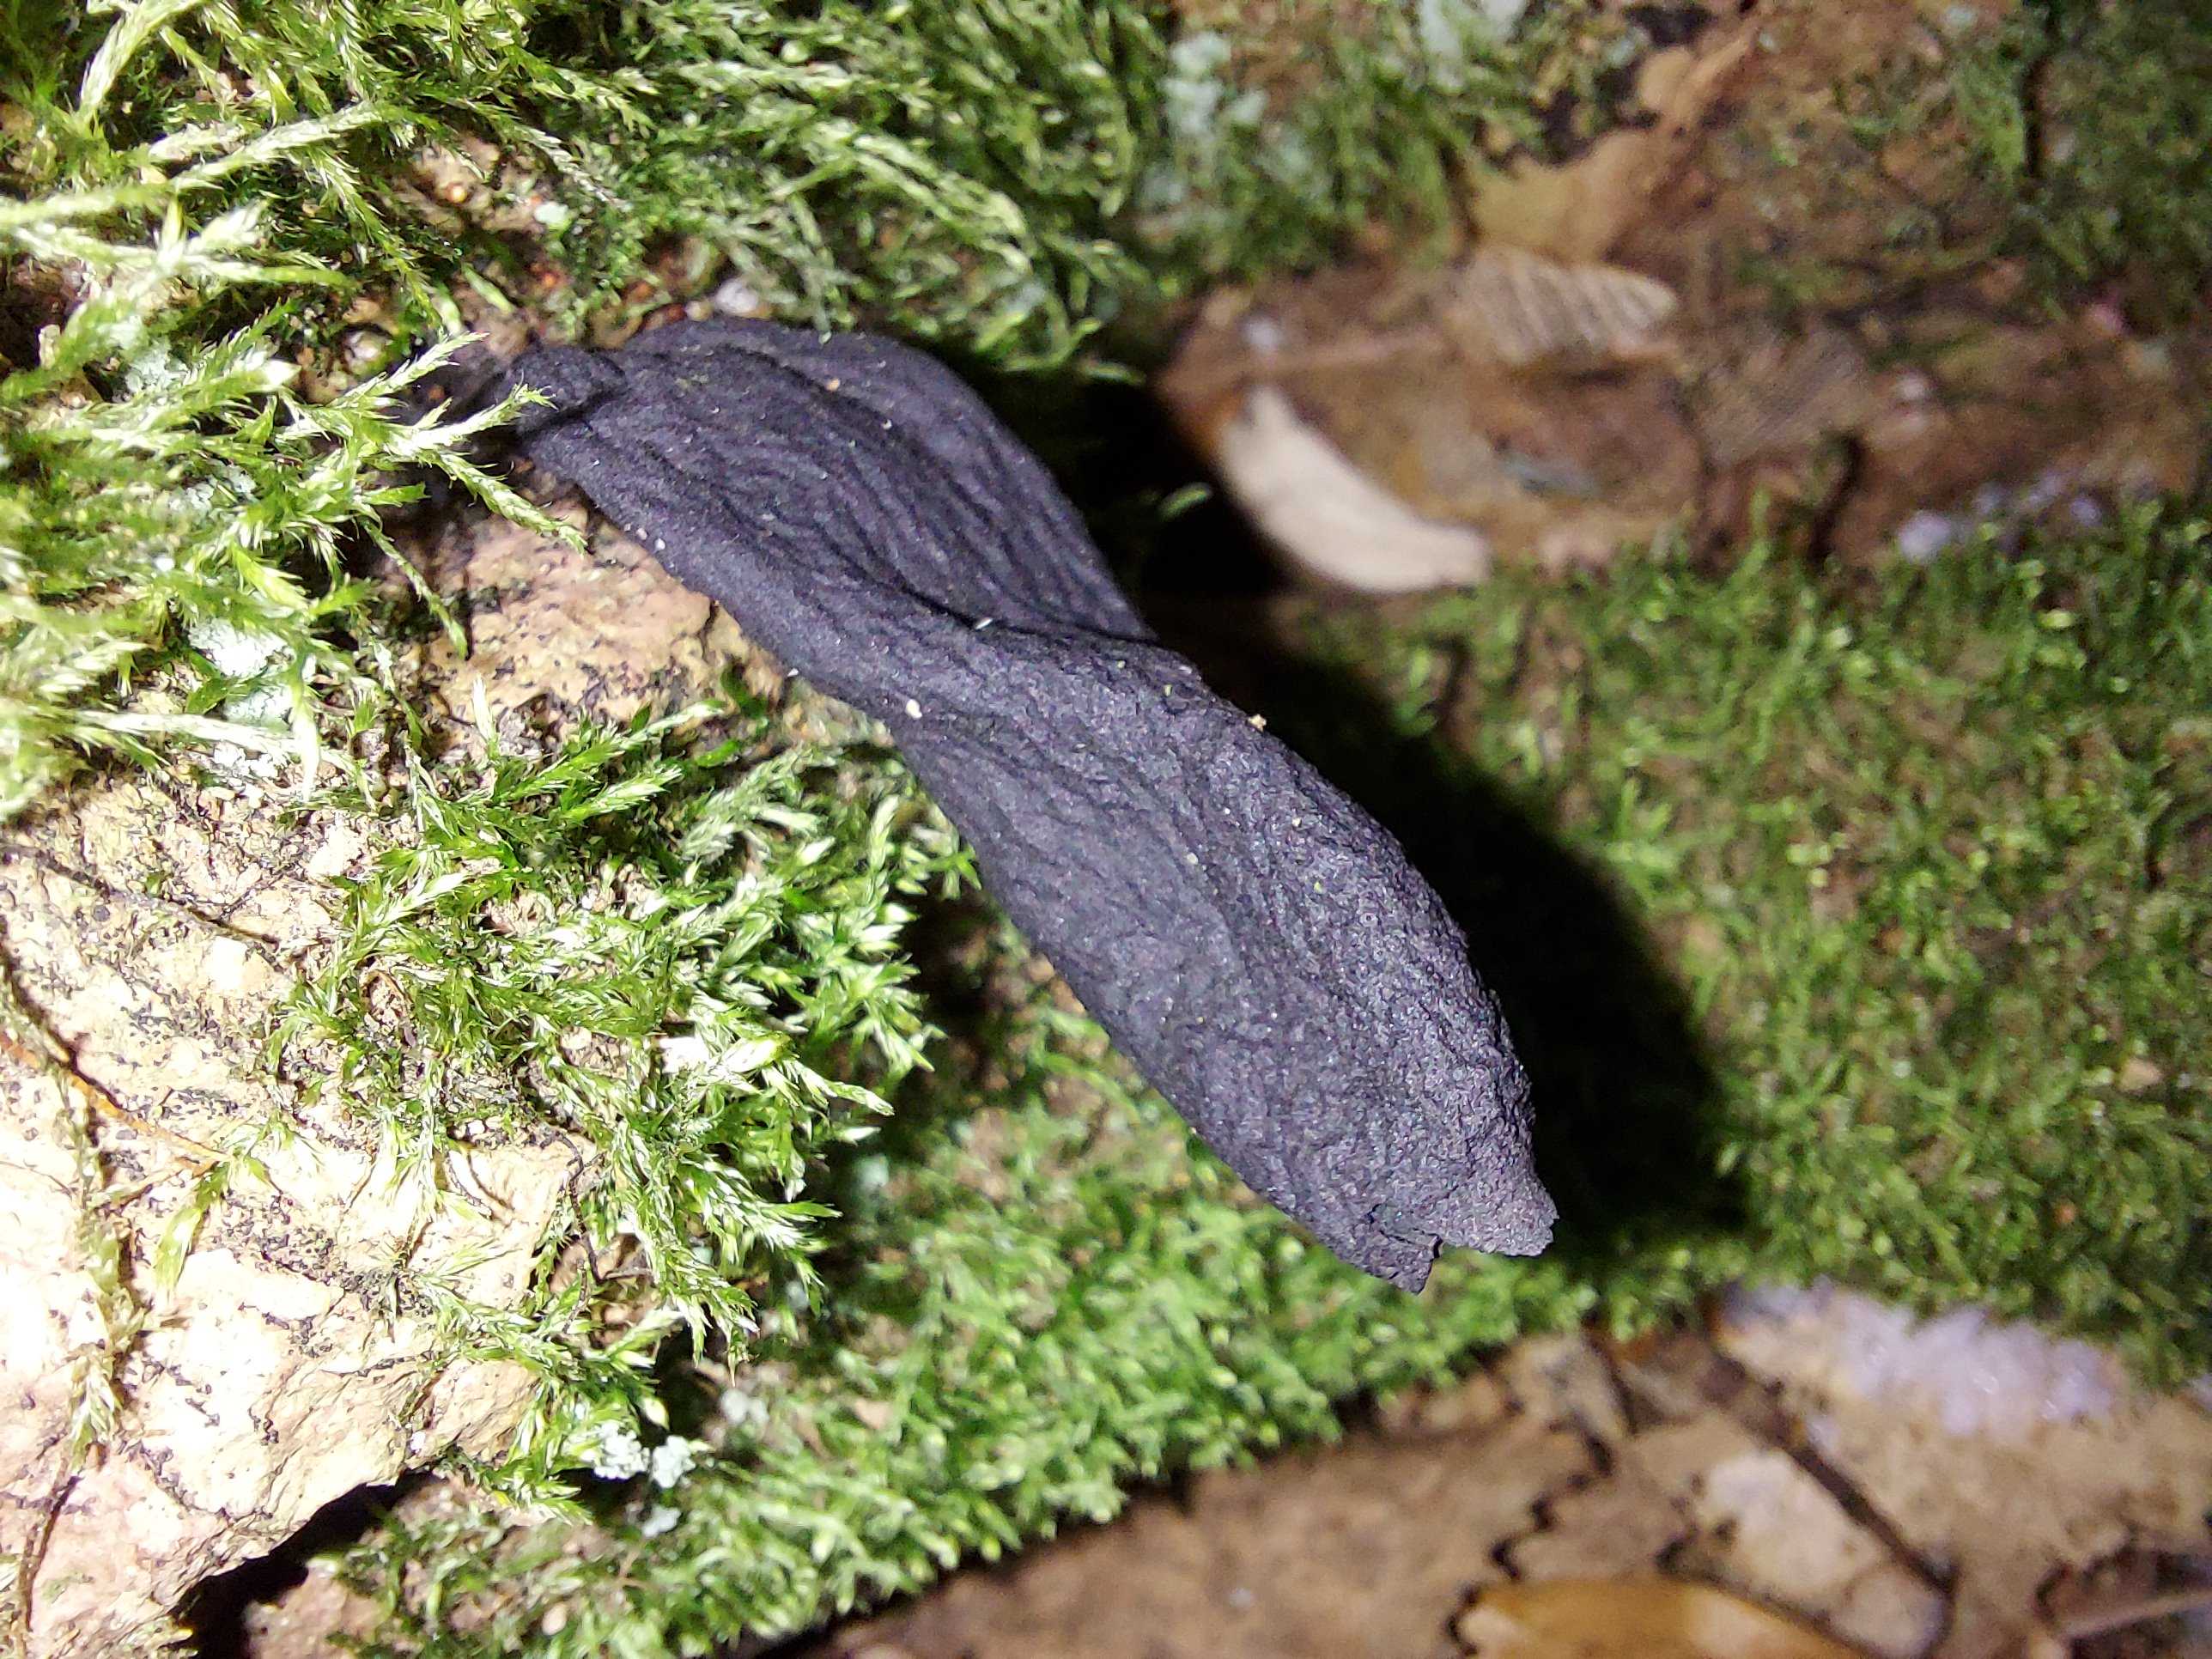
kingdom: Fungi
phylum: Ascomycota
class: Sordariomycetes
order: Xylariales
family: Xylariaceae
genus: Xylaria
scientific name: Xylaria
